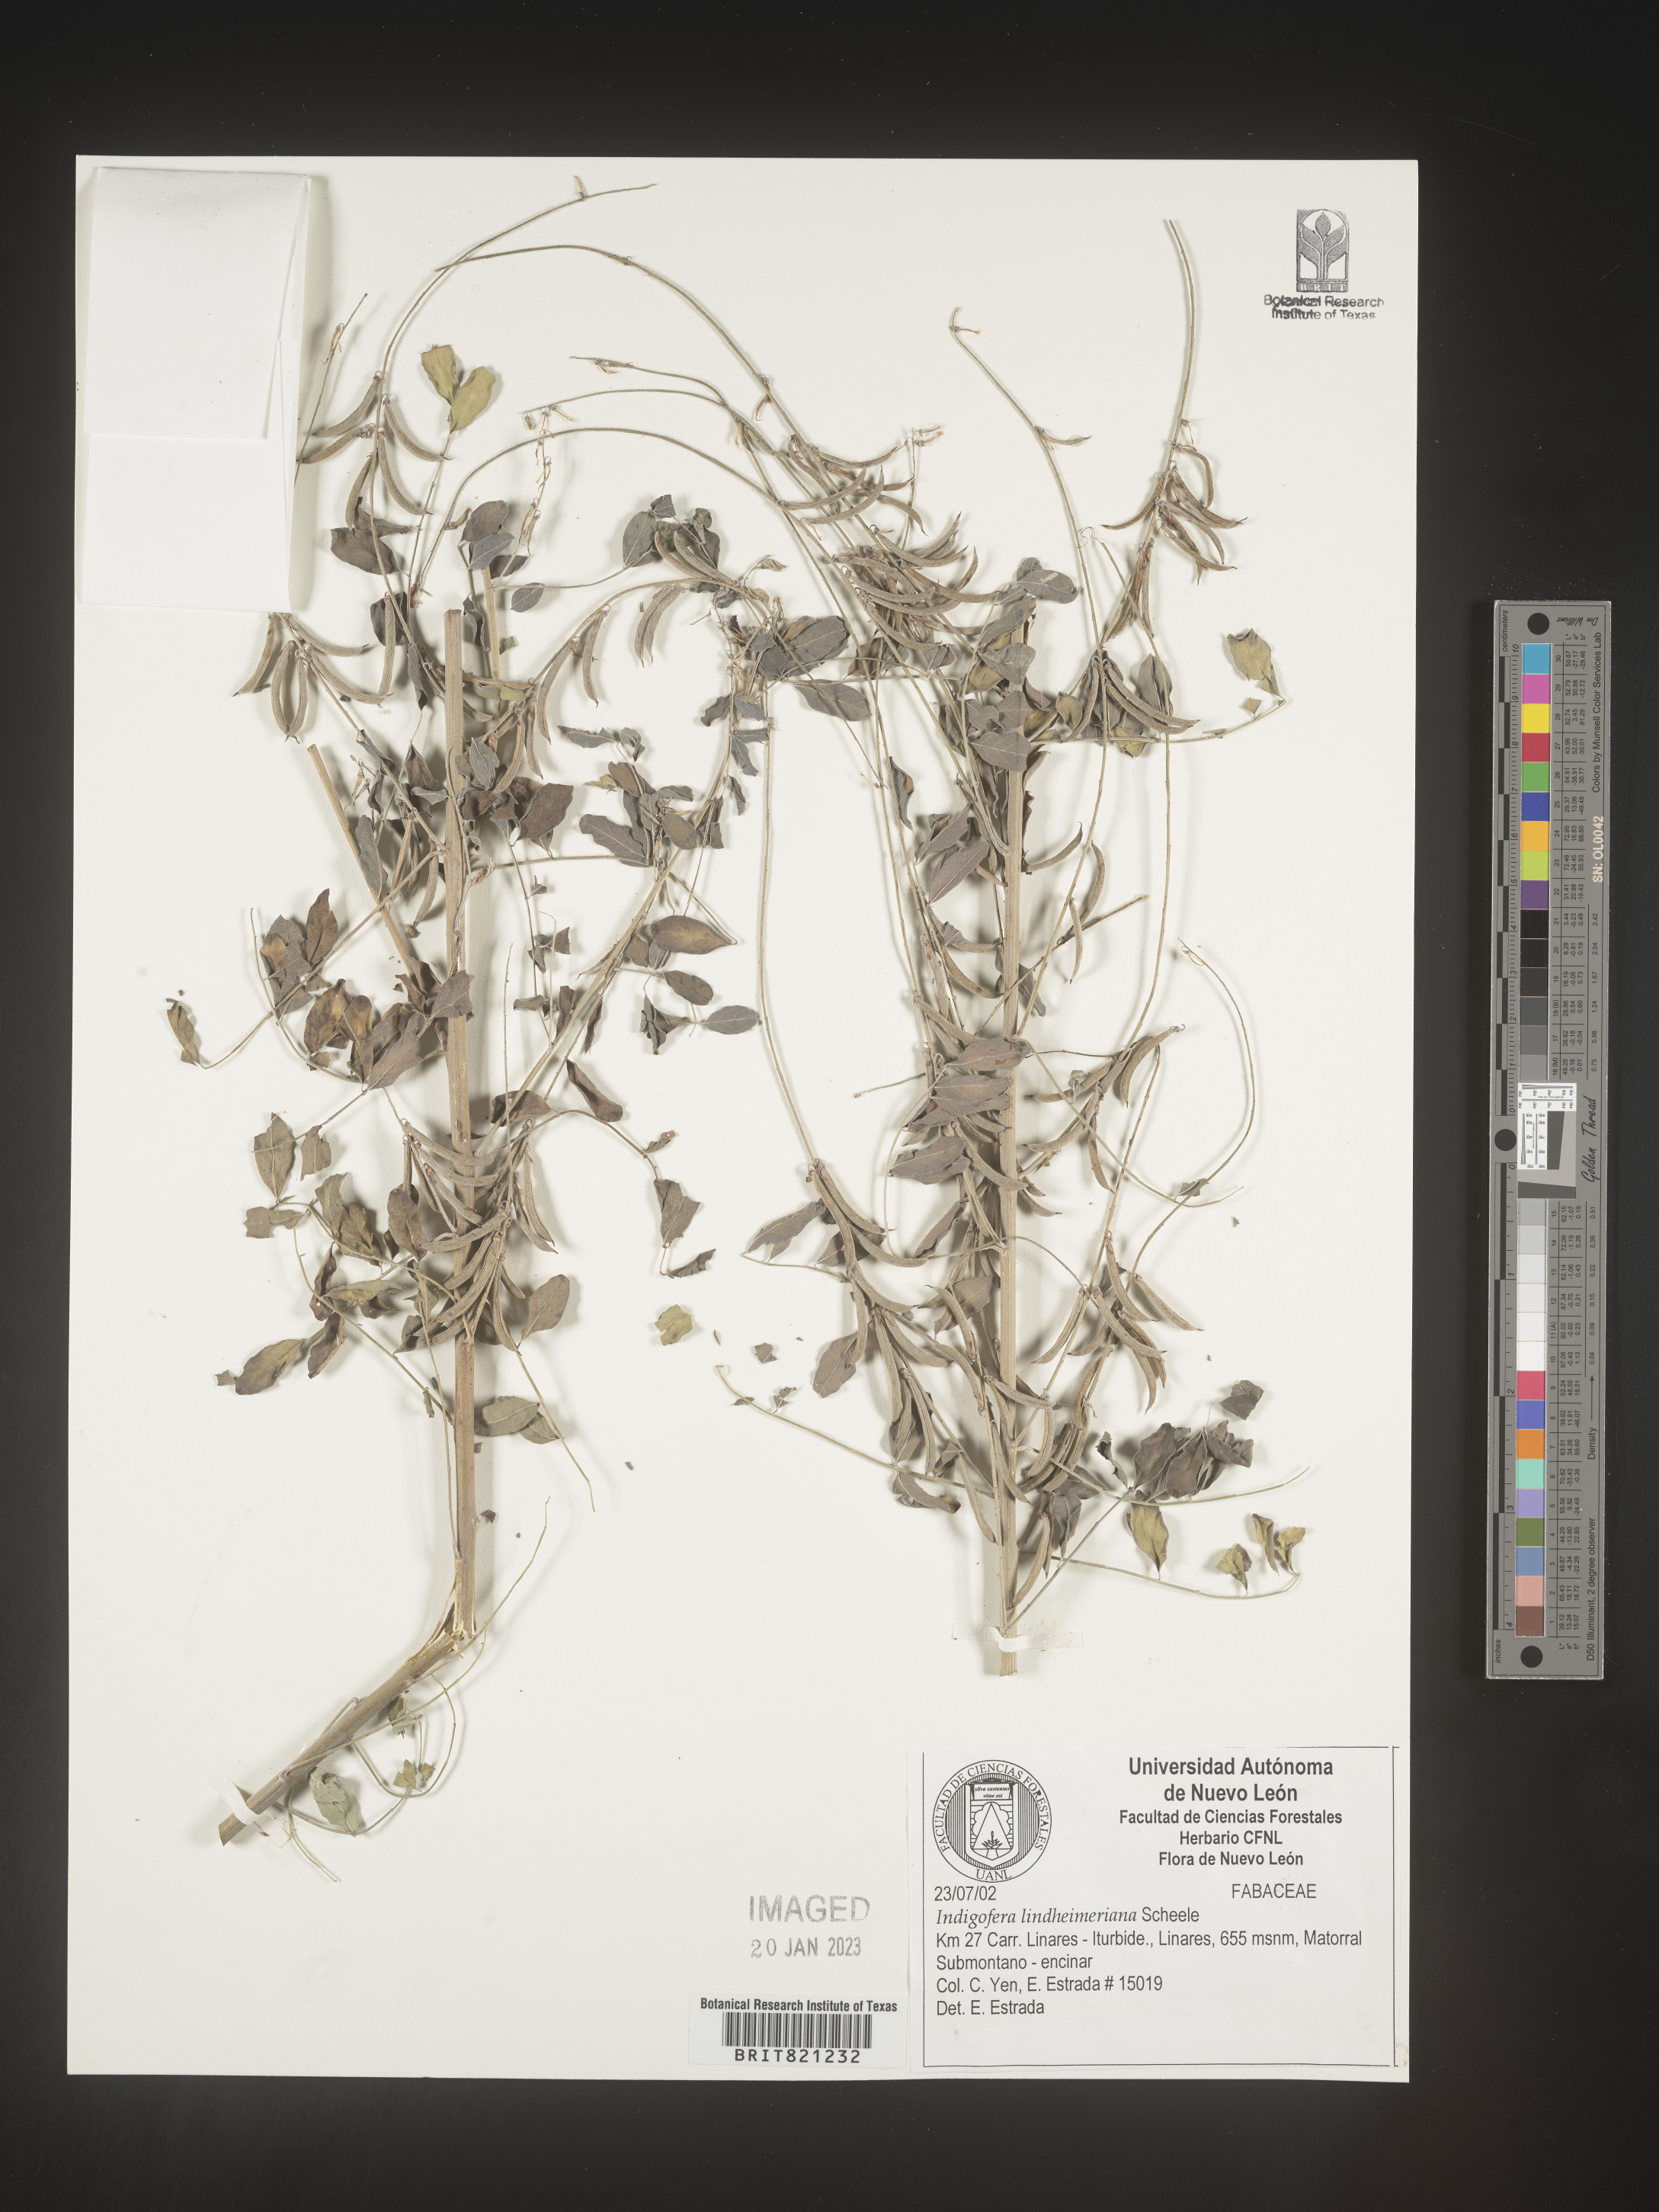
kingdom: Plantae
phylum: Tracheophyta
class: Magnoliopsida
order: Fabales
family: Fabaceae
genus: Indigofera
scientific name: Indigofera
